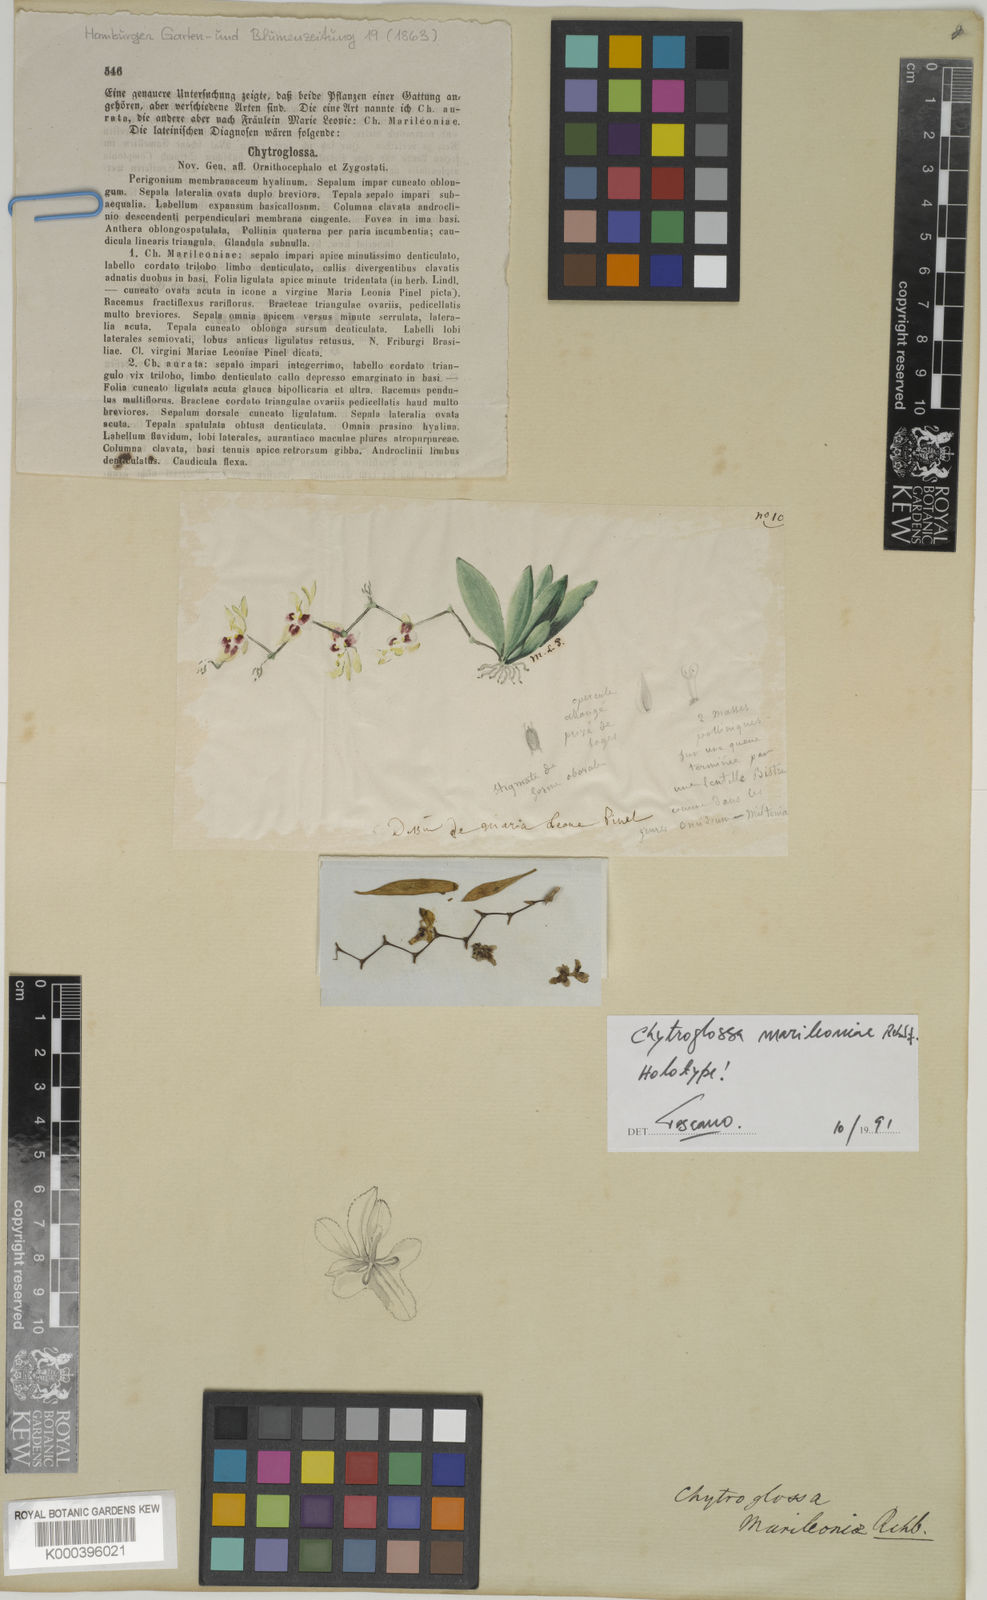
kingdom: Plantae
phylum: Tracheophyta
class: Liliopsida
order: Asparagales
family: Orchidaceae
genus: Chytroglossa
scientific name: Chytroglossa marileoniae
